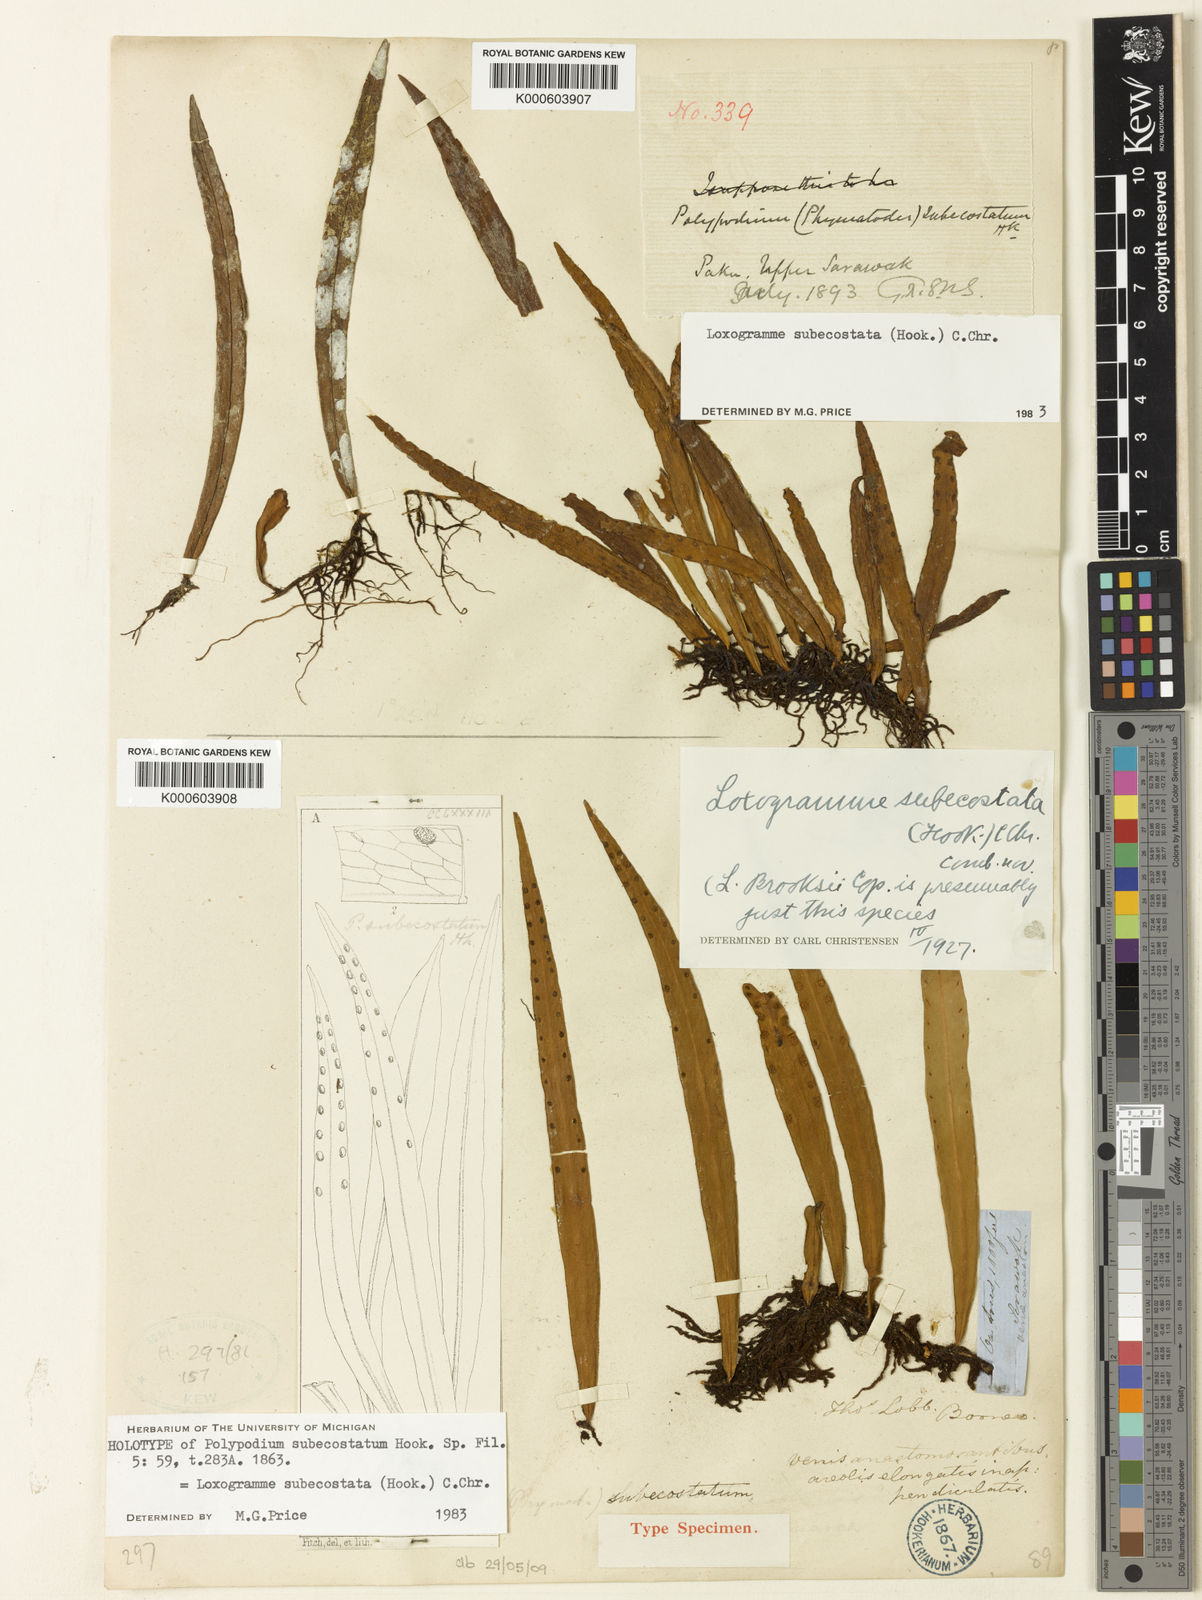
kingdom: Plantae
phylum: Tracheophyta
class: Polypodiopsida
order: Polypodiales
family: Polypodiaceae
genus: Loxogramme
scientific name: Loxogramme subecostata
